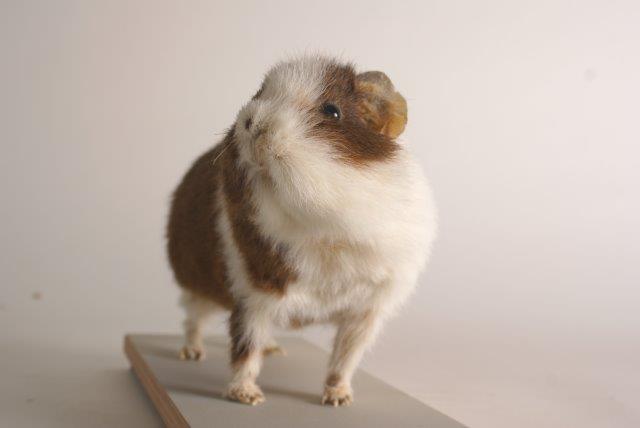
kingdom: Animalia
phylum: Chordata
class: Mammalia
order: Rodentia
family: Caviidae
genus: Cavia
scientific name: Cavia aperea
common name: Brazilian Guinea Pig
